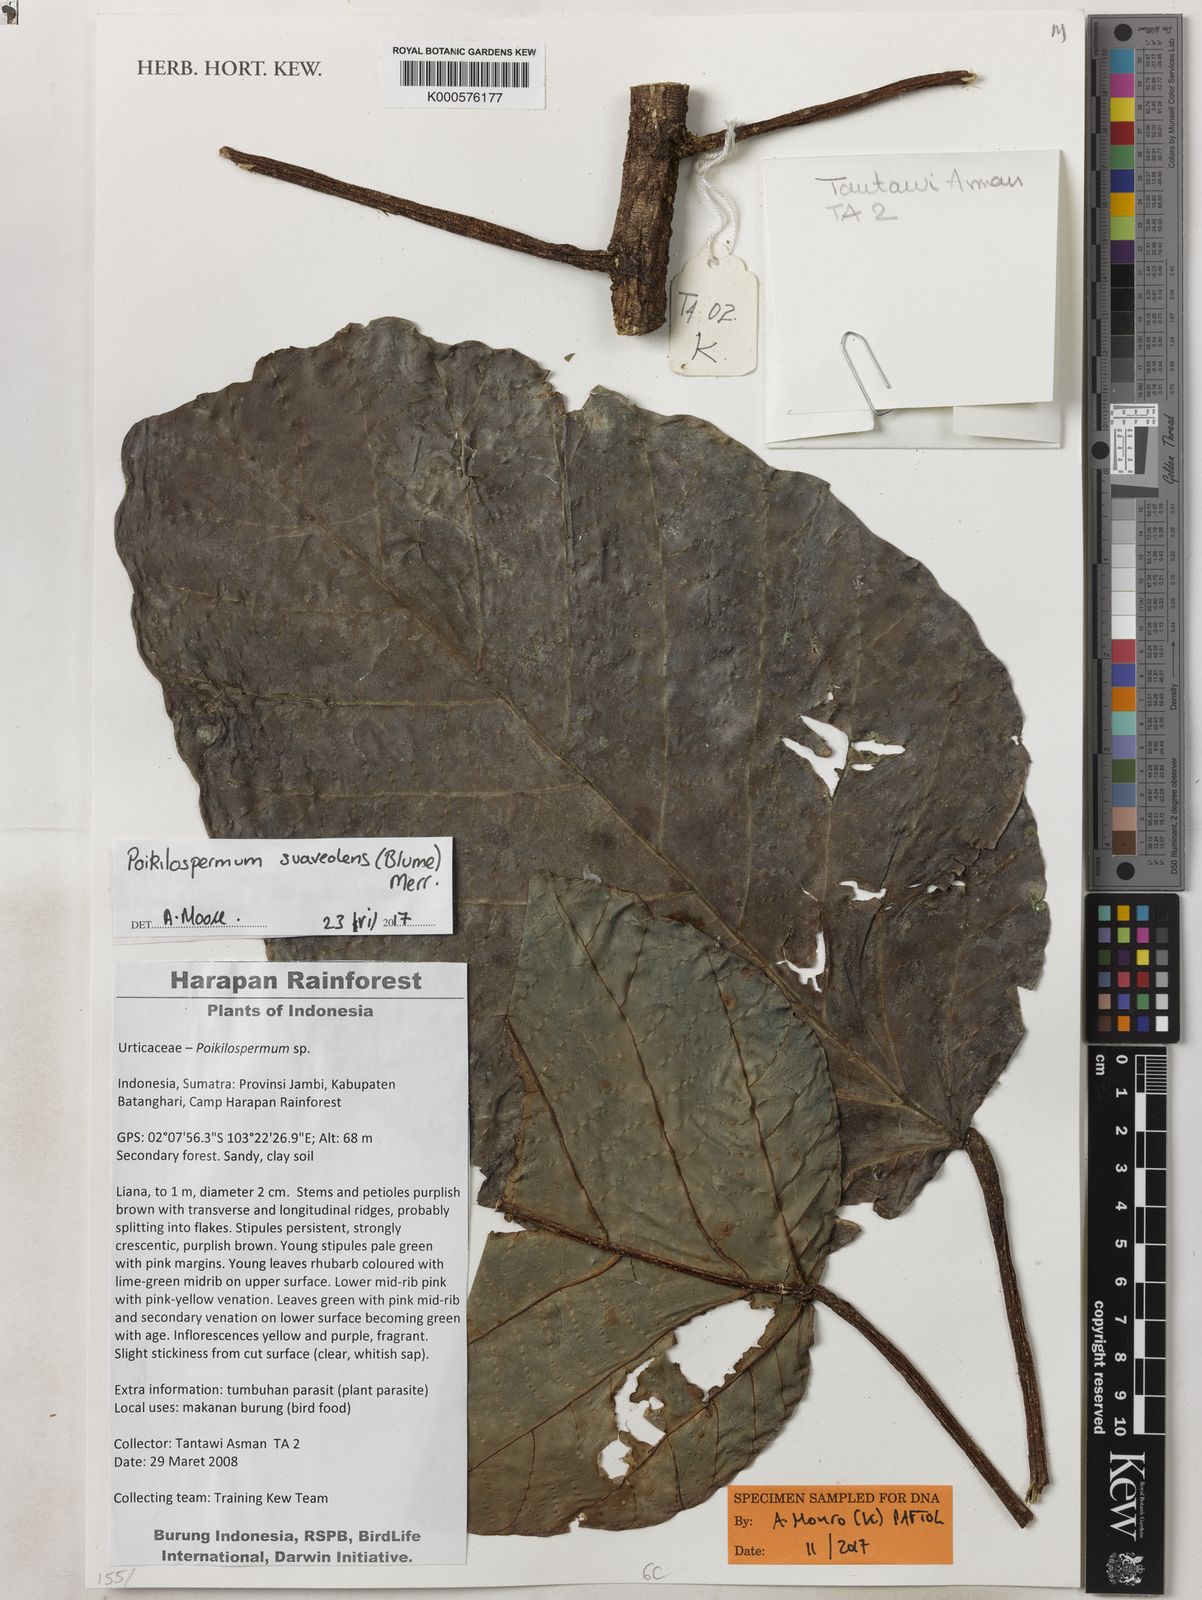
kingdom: Plantae
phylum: Tracheophyta
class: Magnoliopsida
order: Rosales
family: Urticaceae
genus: Poikilospermum
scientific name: Poikilospermum suaveolens
